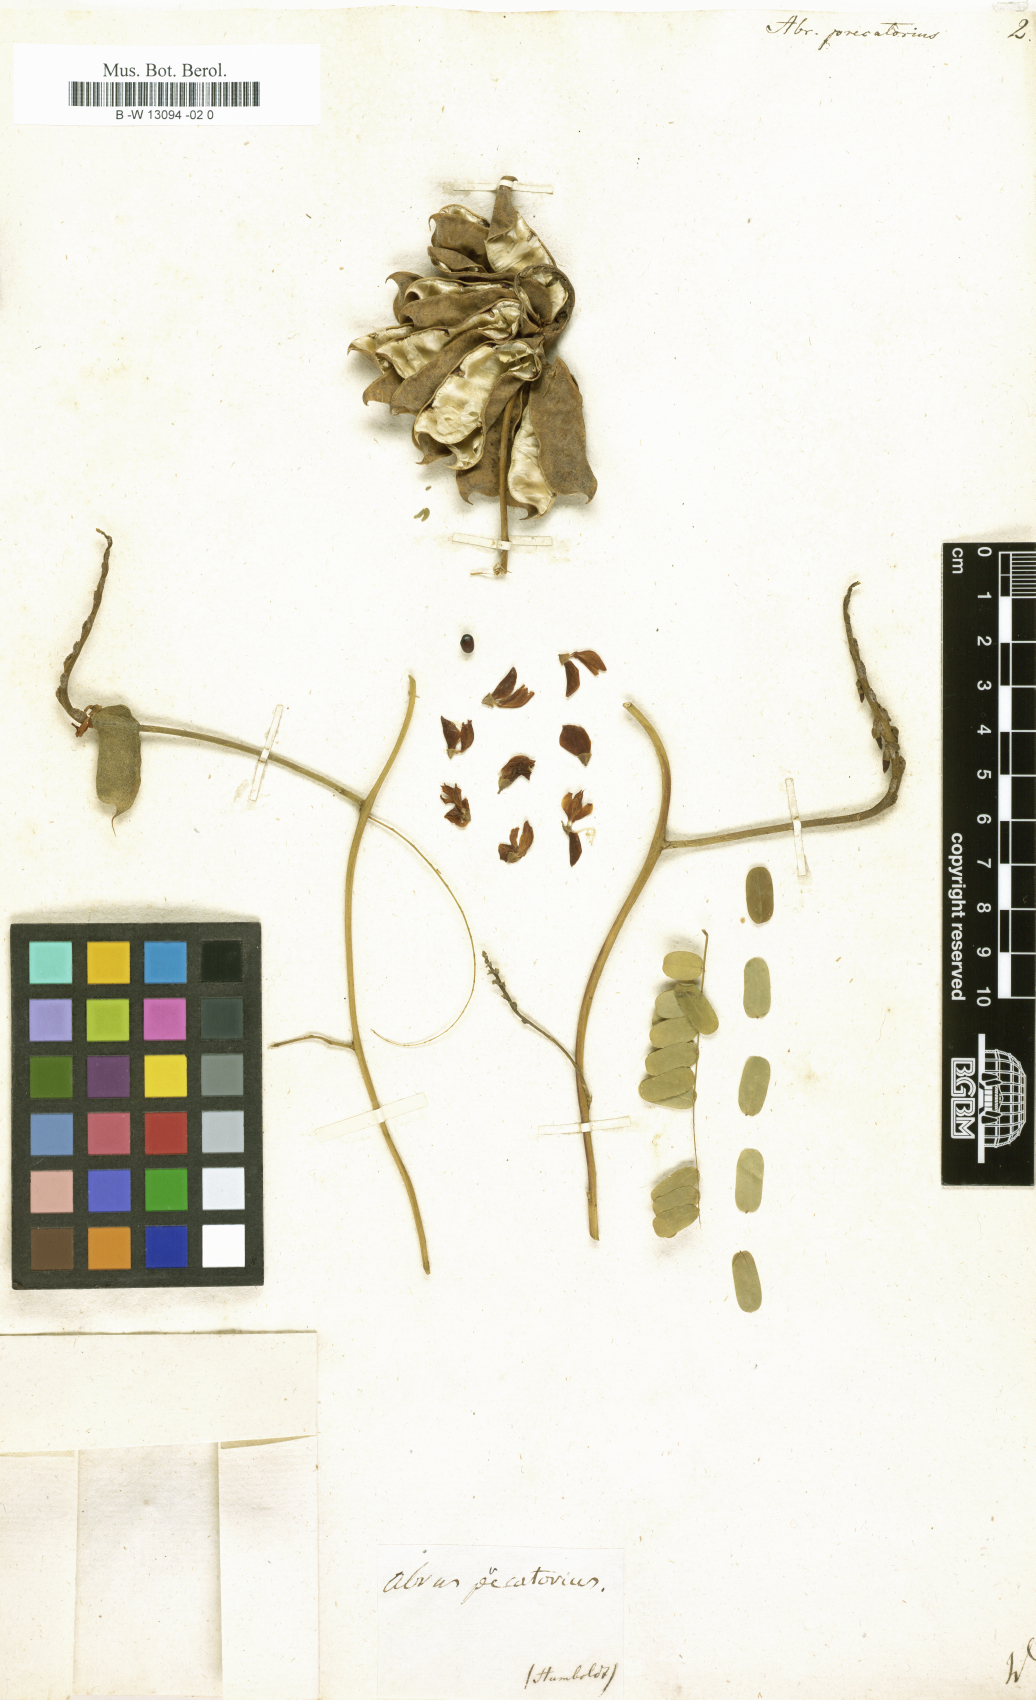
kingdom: Plantae
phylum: Tracheophyta
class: Magnoliopsida
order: Fabales
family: Fabaceae
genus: Abrus
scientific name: Abrus precatorius
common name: Rosarypea
